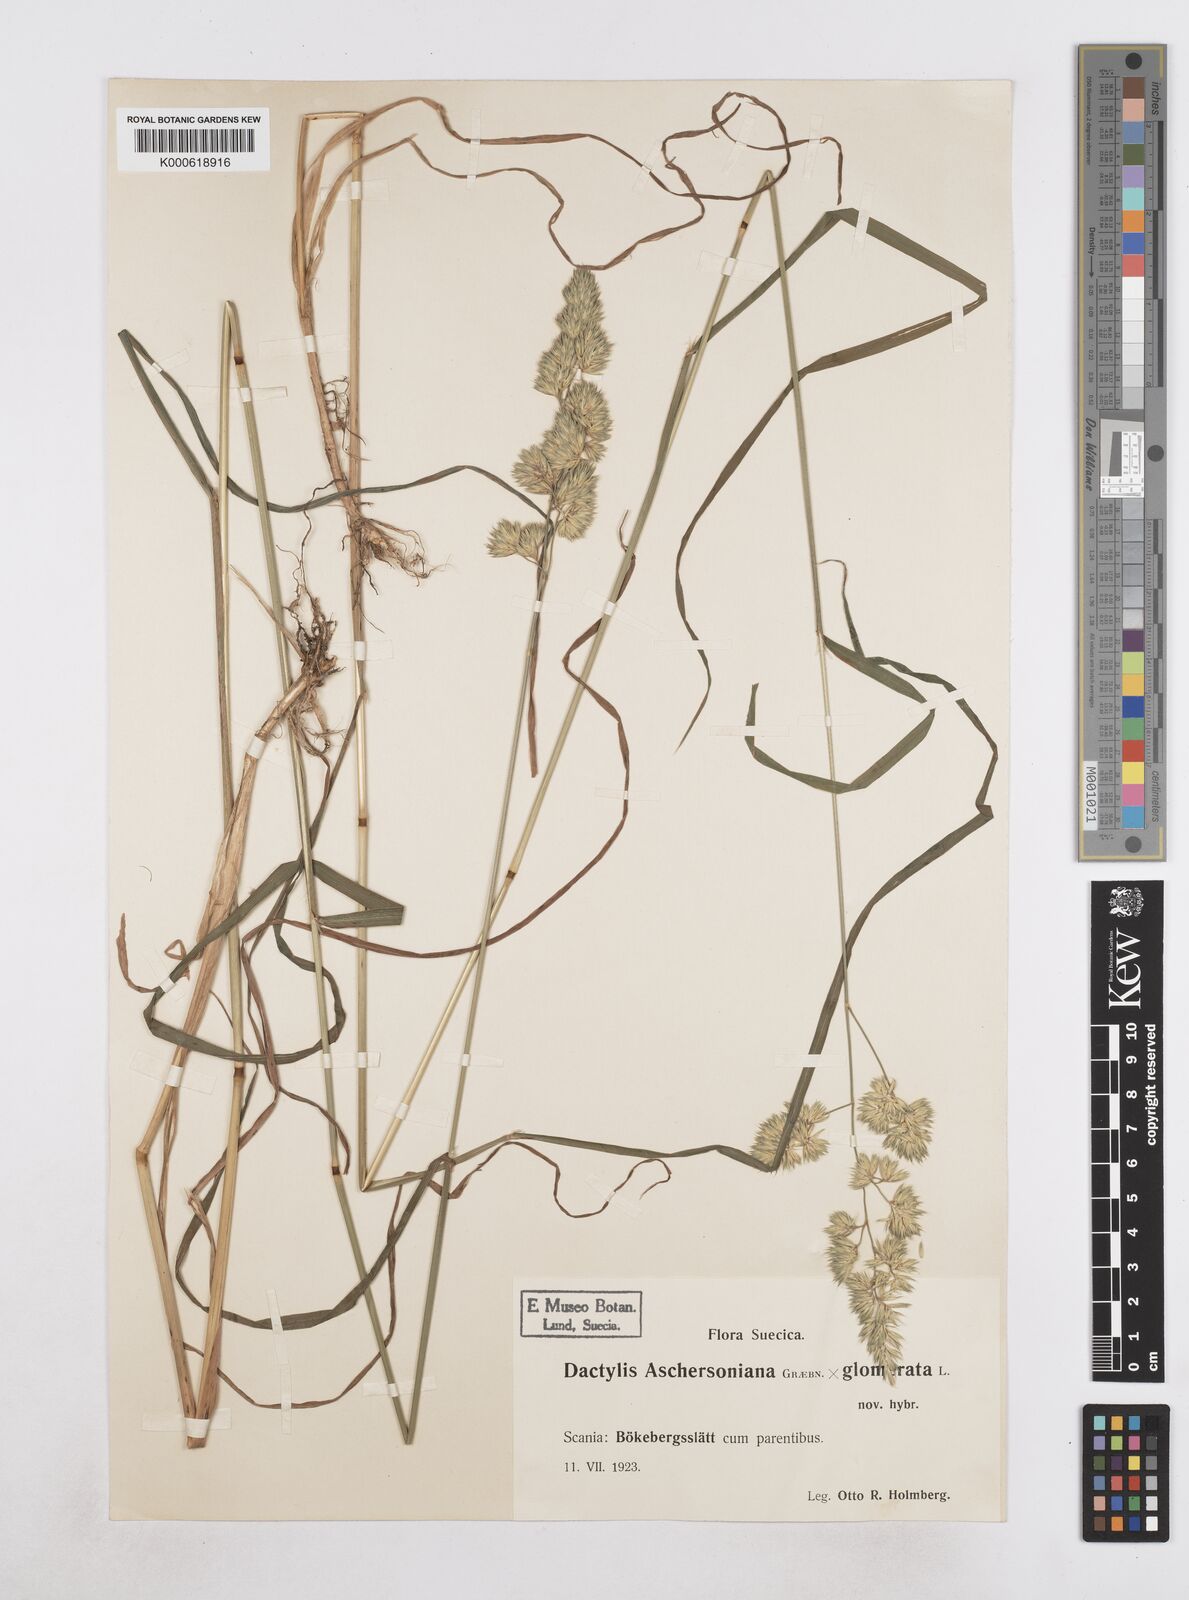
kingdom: Plantae
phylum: Tracheophyta
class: Liliopsida
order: Poales
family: Poaceae
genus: Dactylis
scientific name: Dactylis glomerata
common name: Orchardgrass
